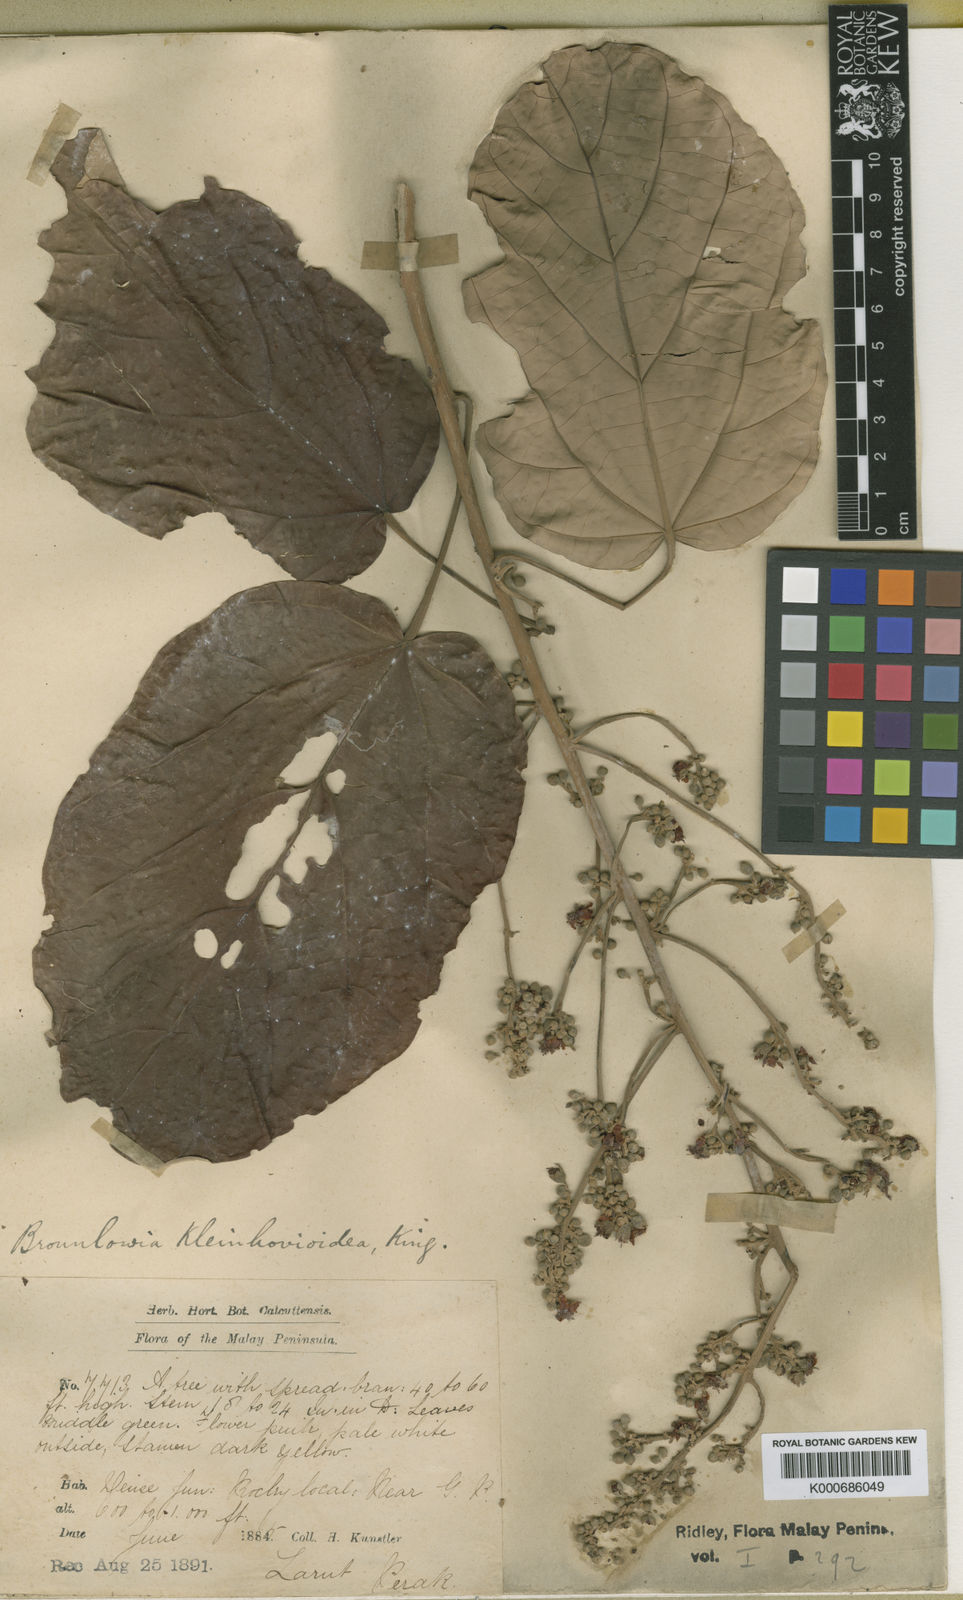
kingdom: Plantae
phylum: Tracheophyta
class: Magnoliopsida
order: Malvales
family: Malvaceae
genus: Brownlowia
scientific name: Brownlowia kleinhovioidea
